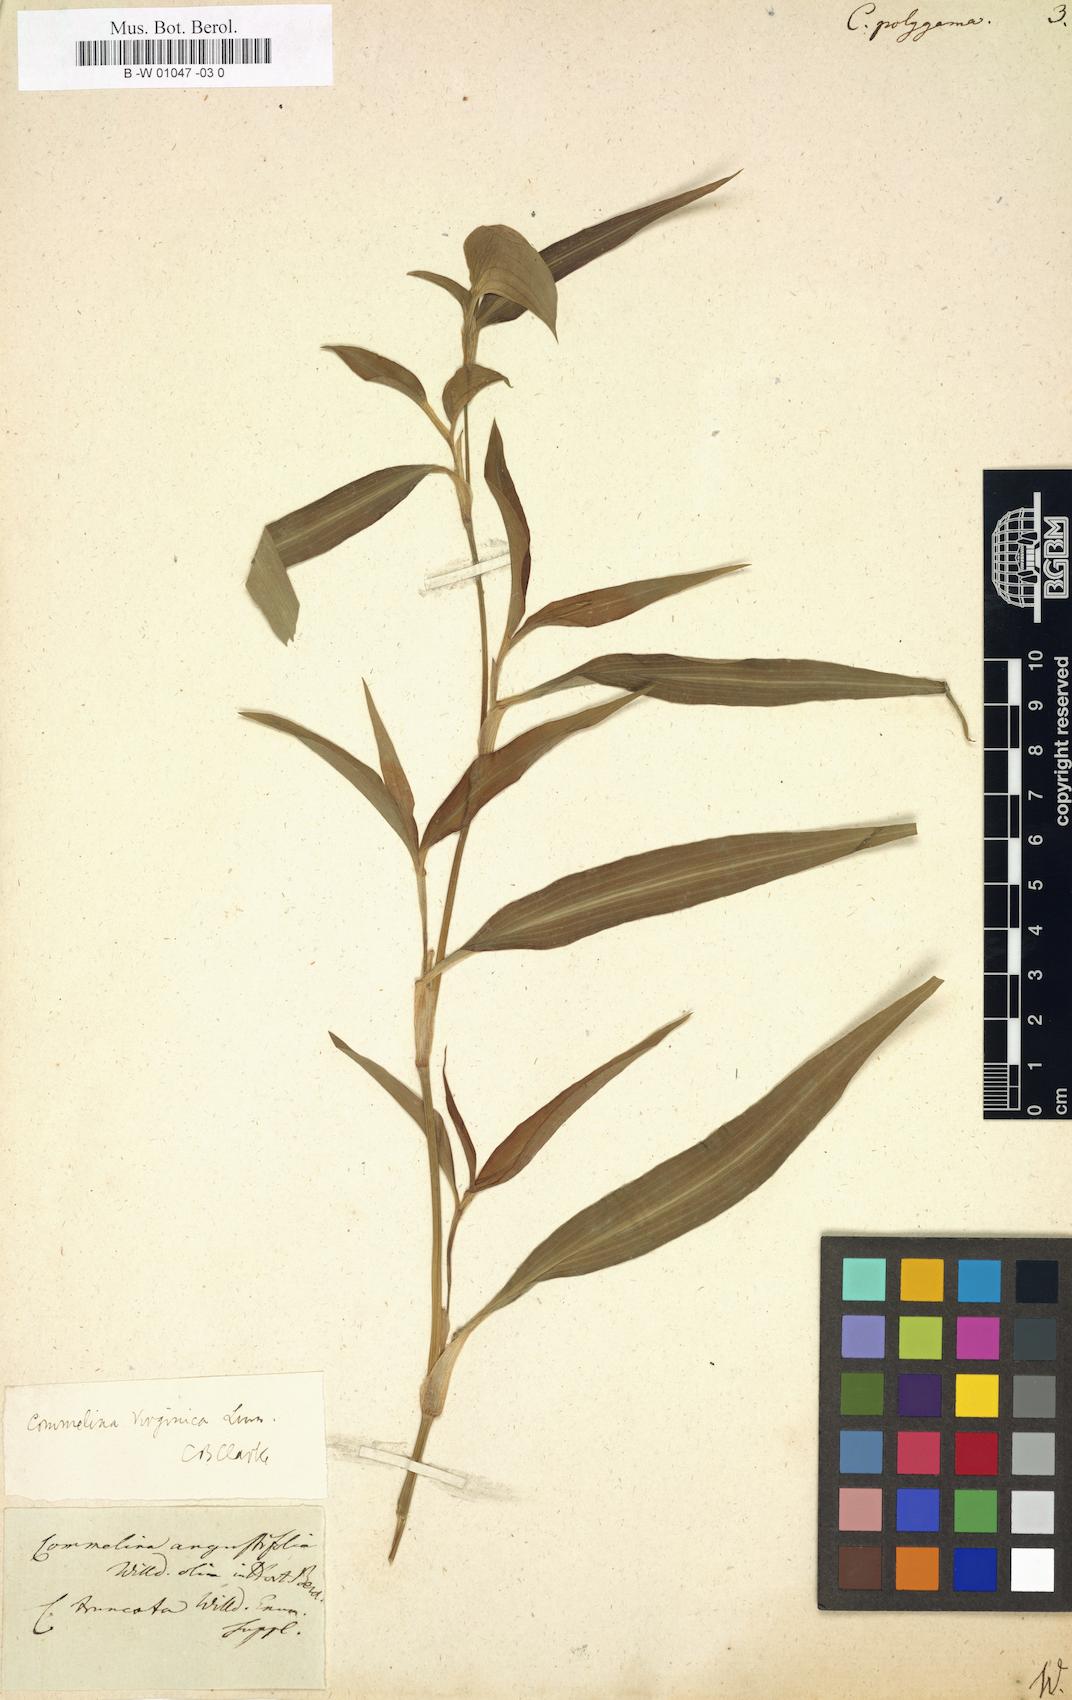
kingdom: Plantae
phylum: Tracheophyta
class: Liliopsida
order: Commelinales
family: Commelinaceae
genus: Commelina
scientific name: Commelina communis
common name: Asiatic dayflower
